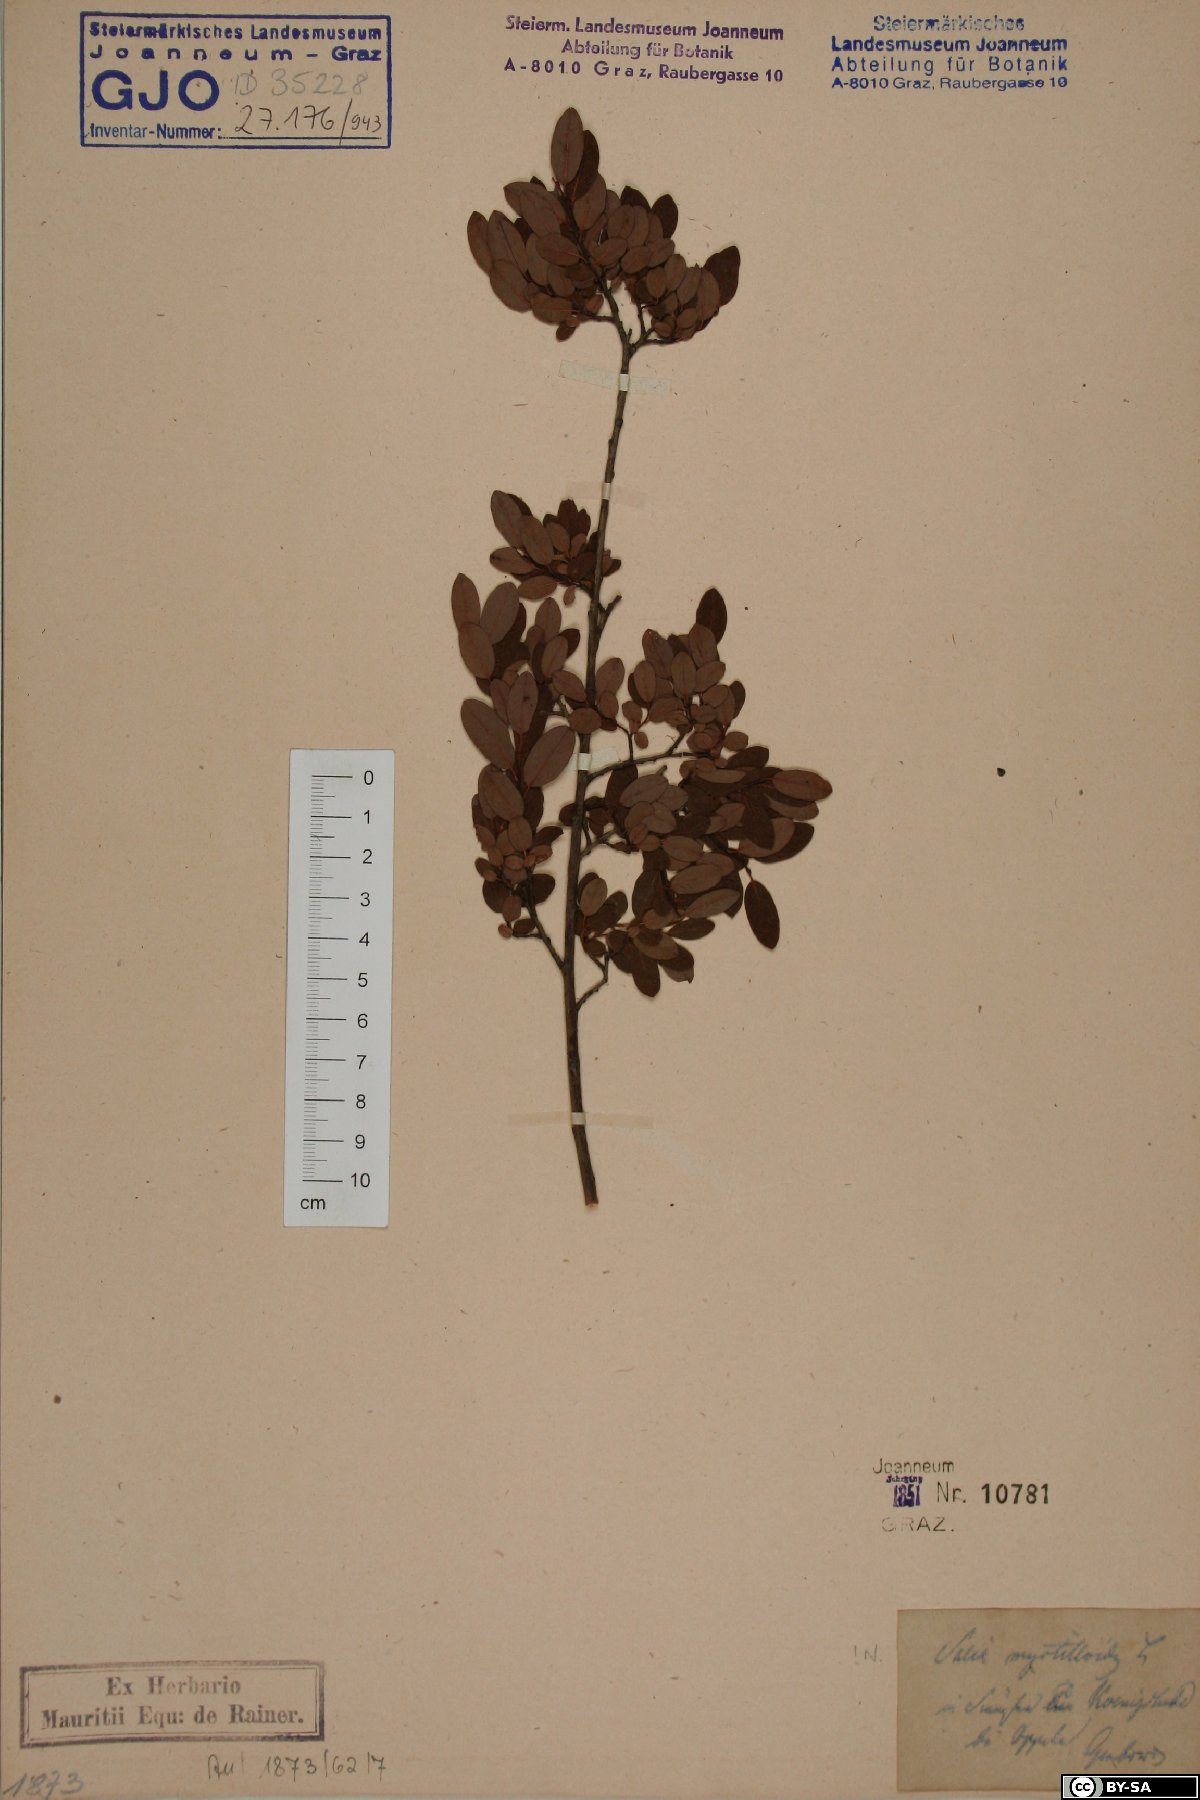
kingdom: Plantae
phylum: Tracheophyta
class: Magnoliopsida
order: Malpighiales
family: Salicaceae
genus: Salix
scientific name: Salix myrtilloides
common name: Myrtle-leaved willow
